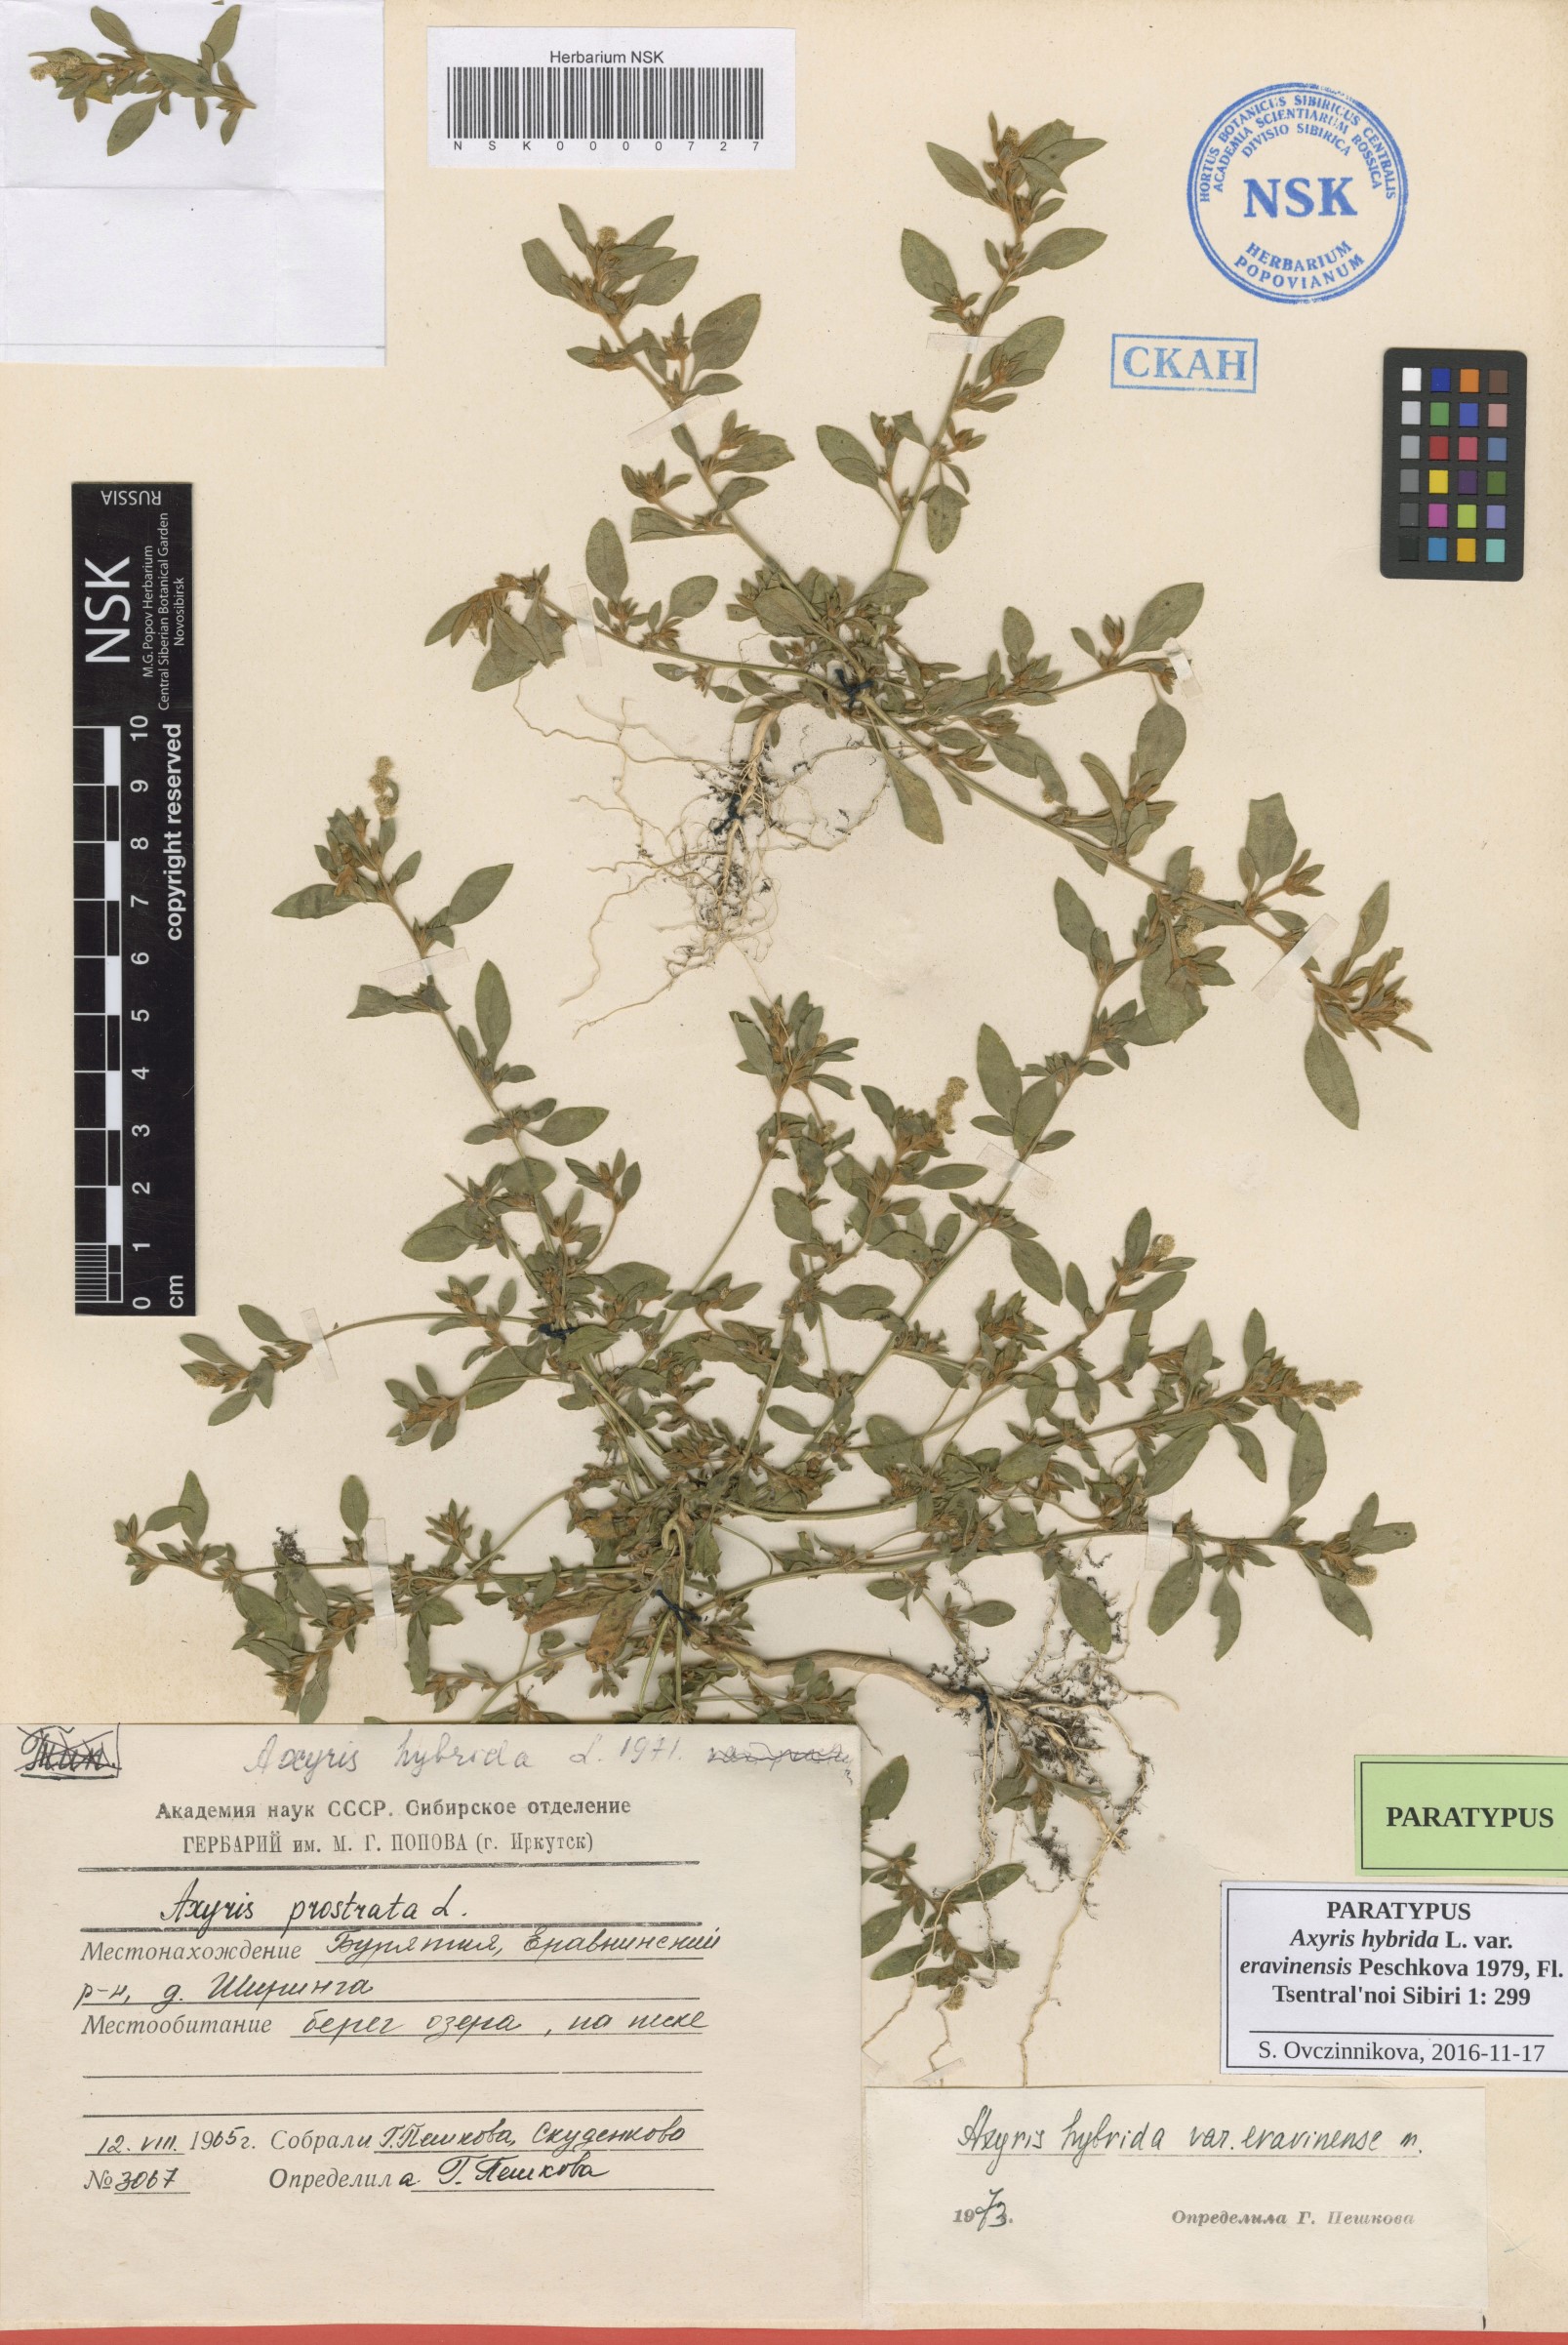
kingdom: Plantae
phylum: Tracheophyta
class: Magnoliopsida
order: Caryophyllales
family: Amaranthaceae
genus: Axyris
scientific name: Axyris hybrida
